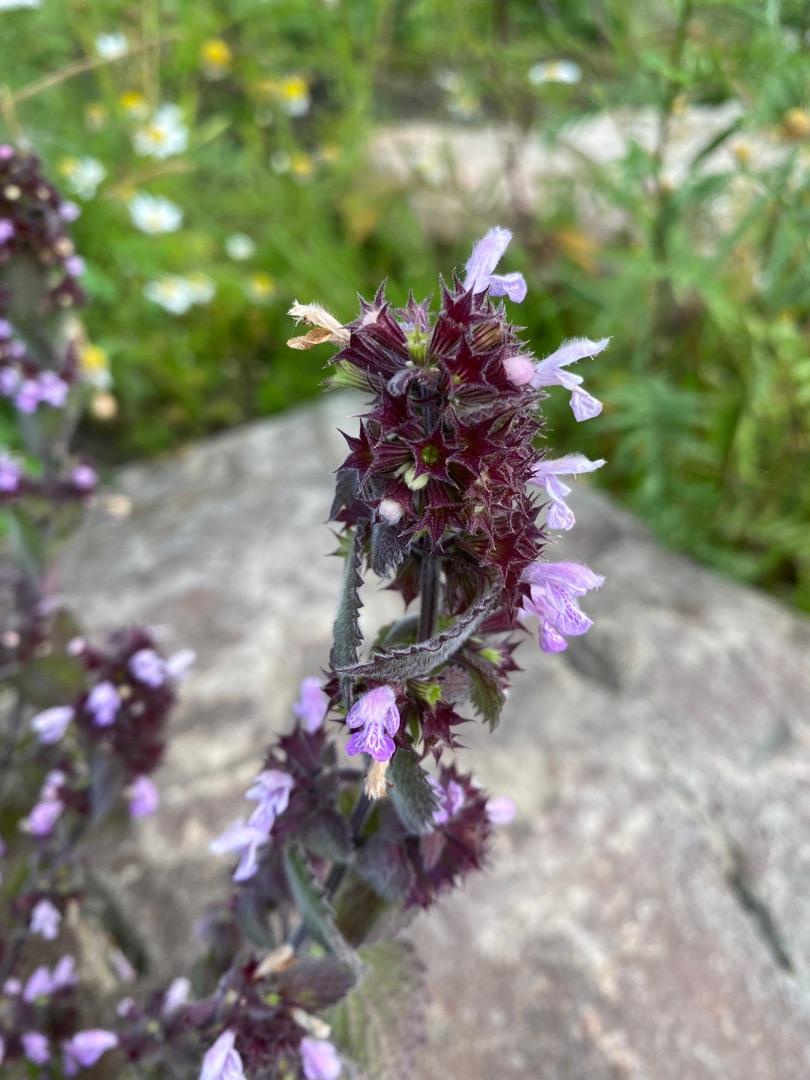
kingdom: Plantae
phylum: Tracheophyta
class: Magnoliopsida
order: Lamiales
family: Lamiaceae
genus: Ballota
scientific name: Ballota nigra
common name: Tandbæger
